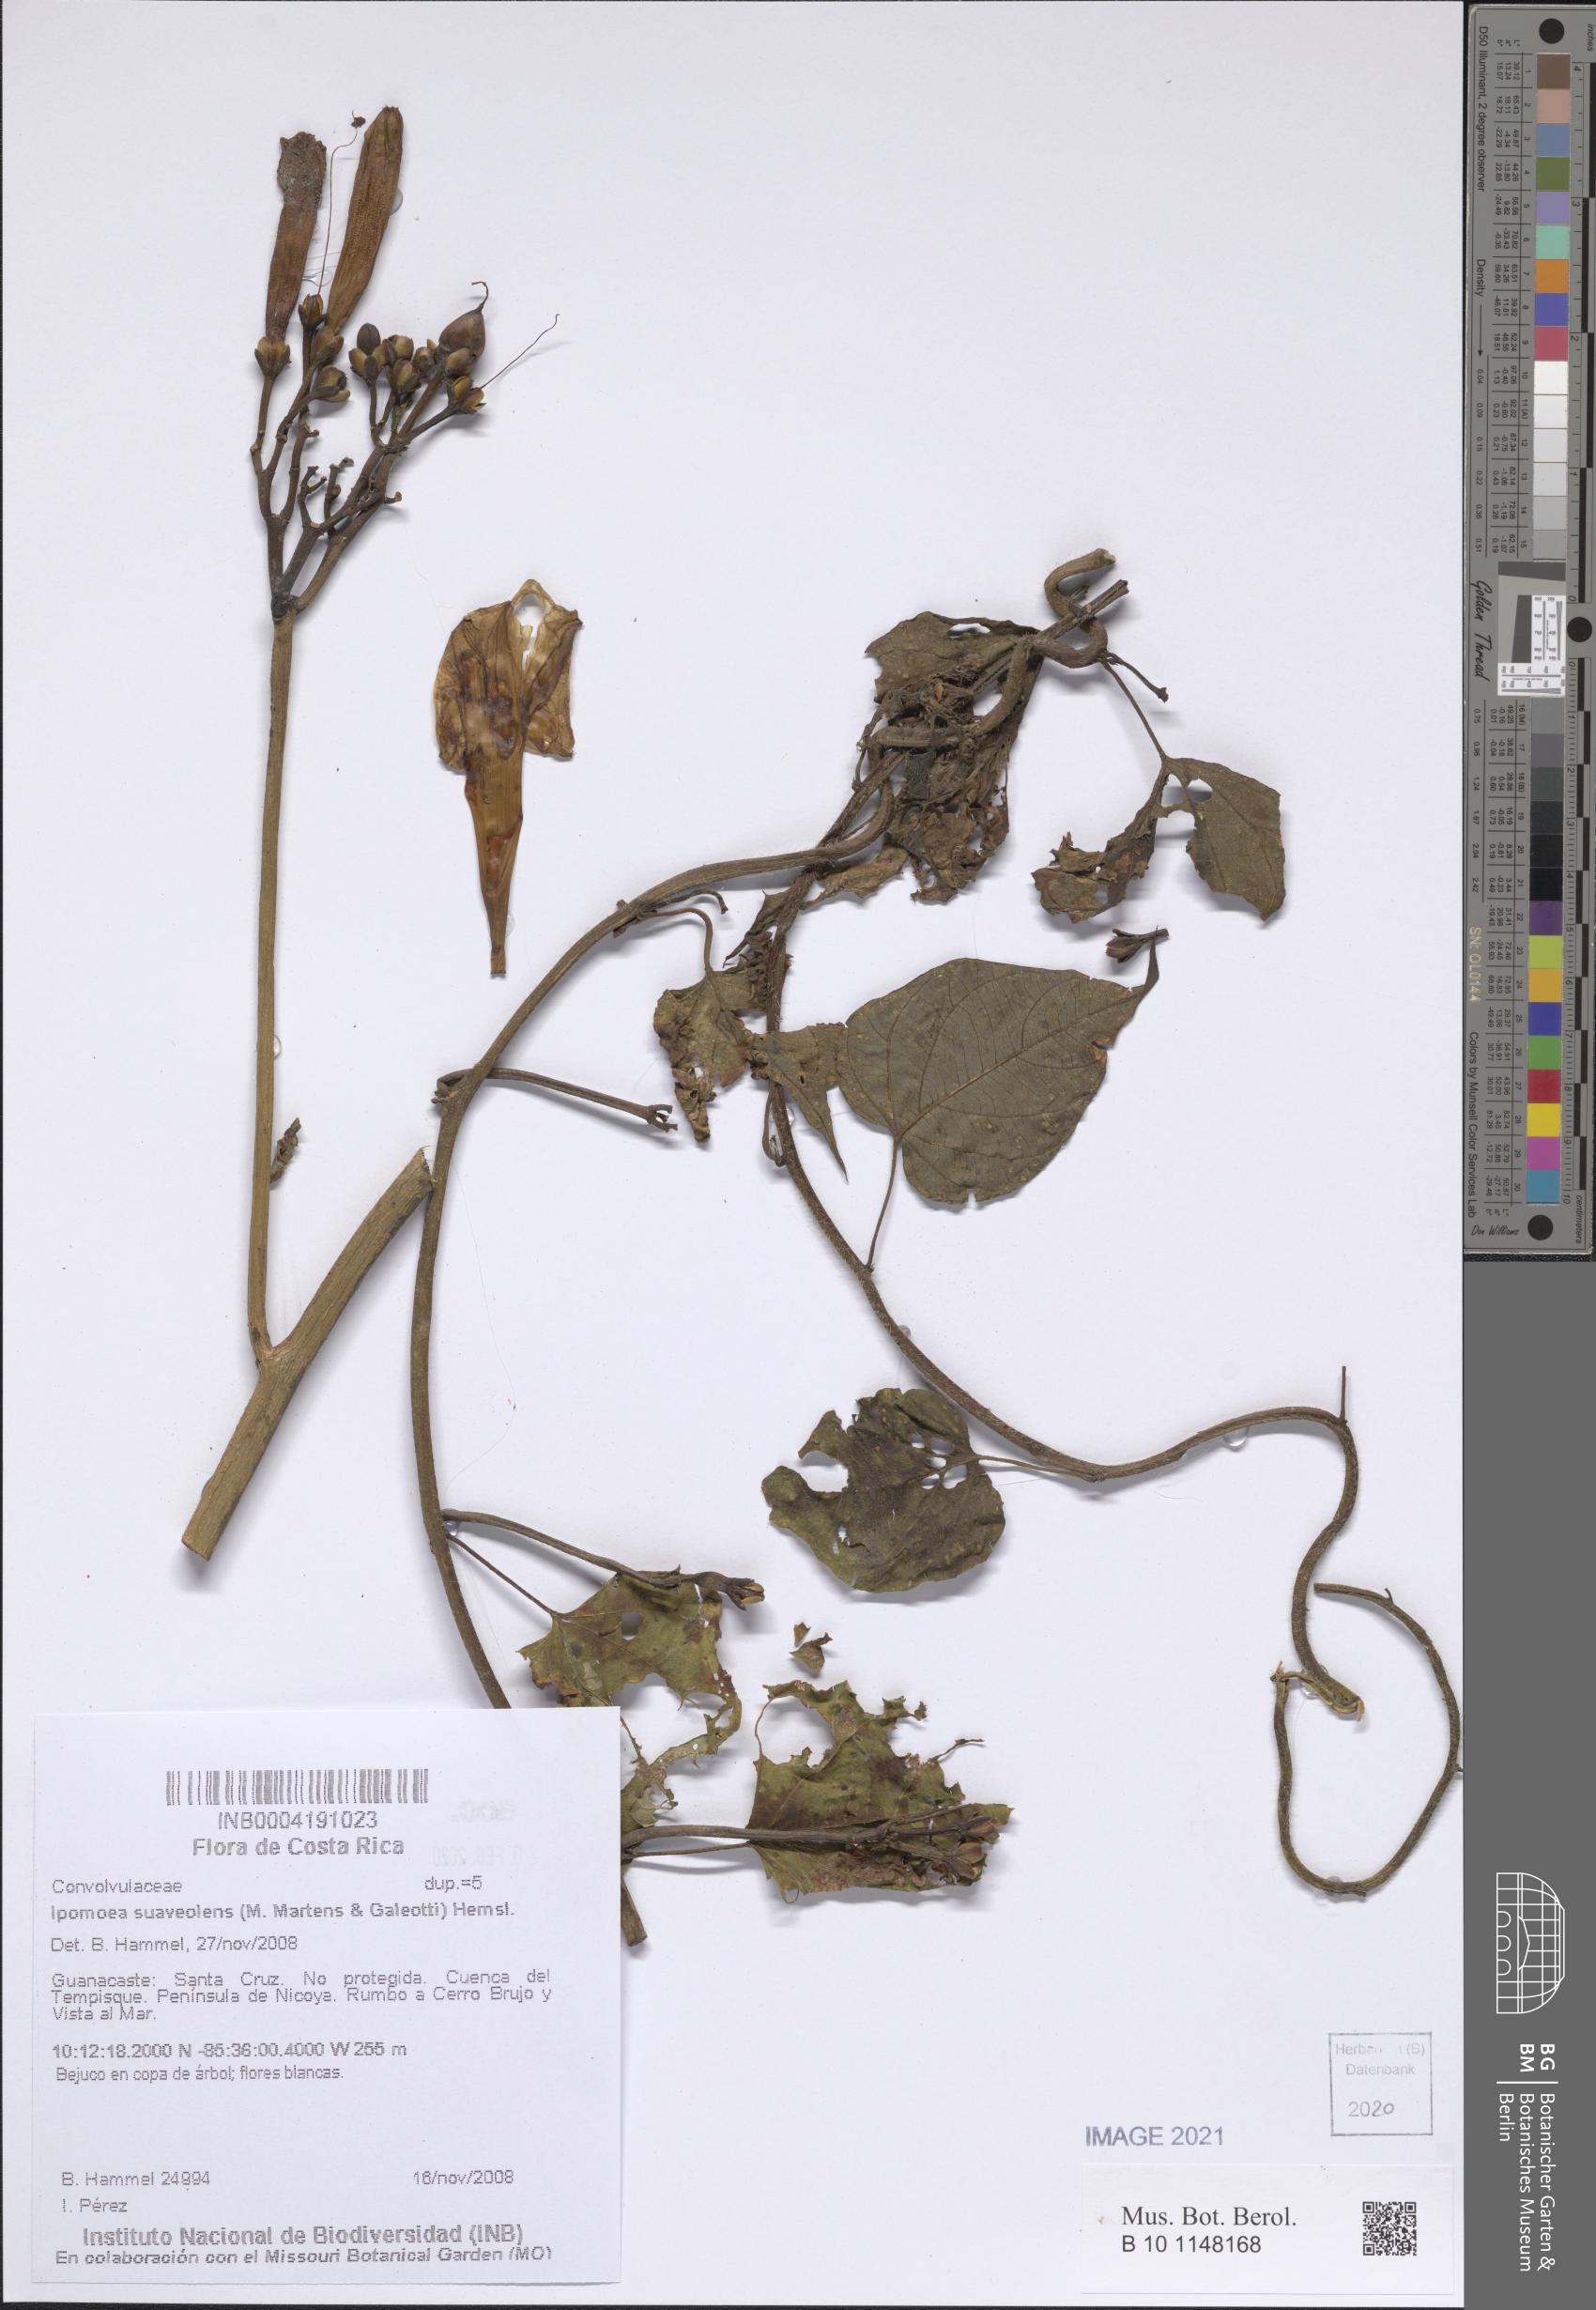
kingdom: Plantae
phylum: Tracheophyta
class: Magnoliopsida
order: Solanales
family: Convolvulaceae
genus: Ipomoea
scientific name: Ipomoea suaveolens
